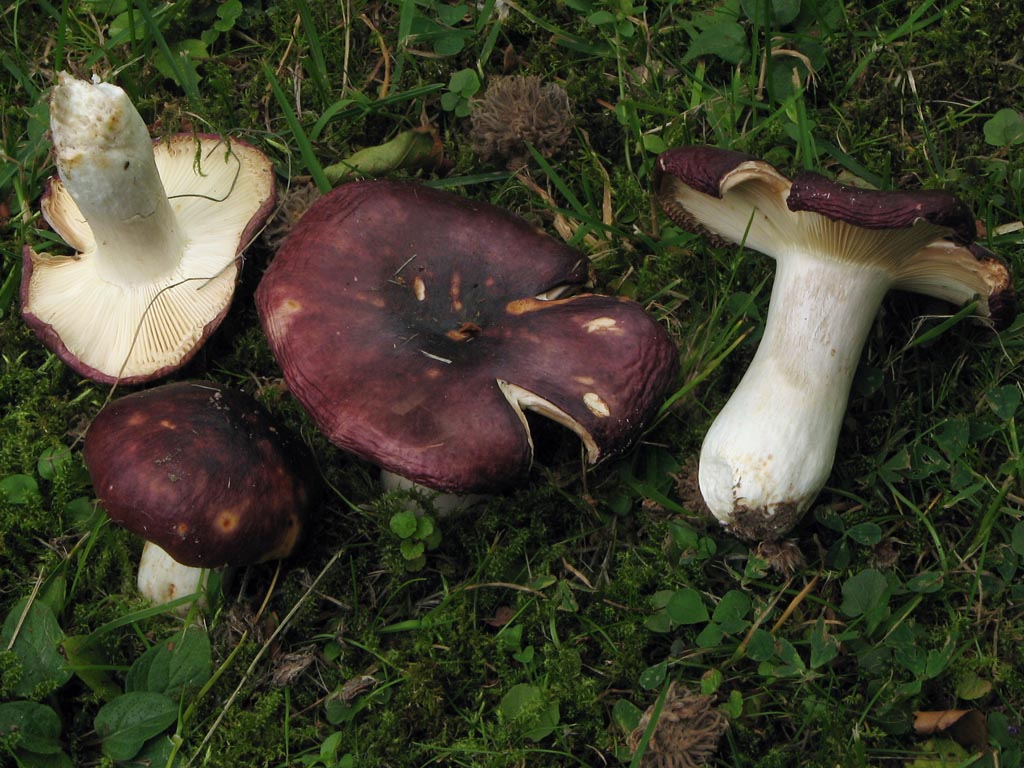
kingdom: Fungi
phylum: Basidiomycota
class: Agaricomycetes
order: Russulales
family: Russulaceae
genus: Russula
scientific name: Russula atropurpurea
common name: purpurbroget skørhat
